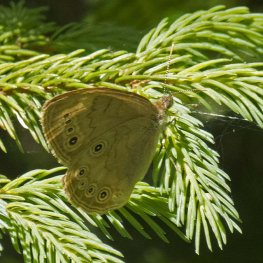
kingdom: Animalia
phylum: Arthropoda
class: Insecta
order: Lepidoptera
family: Nymphalidae
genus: Lethe
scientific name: Lethe eurydice
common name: Eyed Brown
